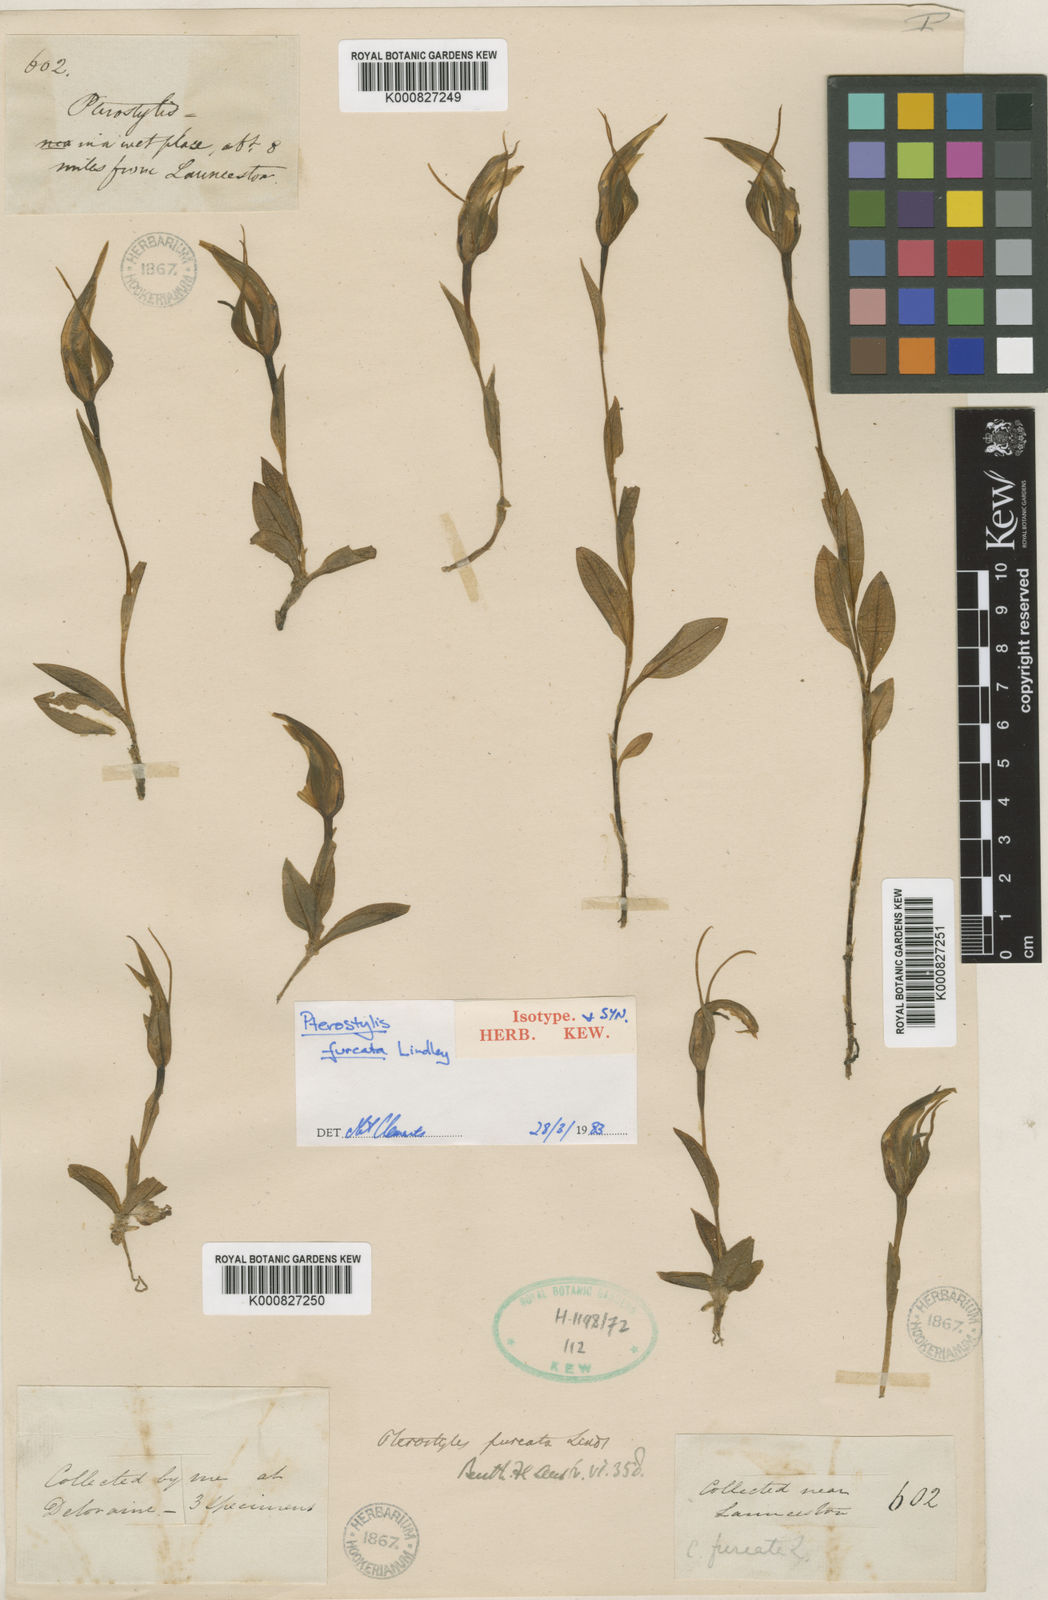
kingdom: Plantae
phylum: Tracheophyta
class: Liliopsida
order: Asparagales
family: Orchidaceae
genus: Pterostylis
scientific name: Pterostylis furcata
